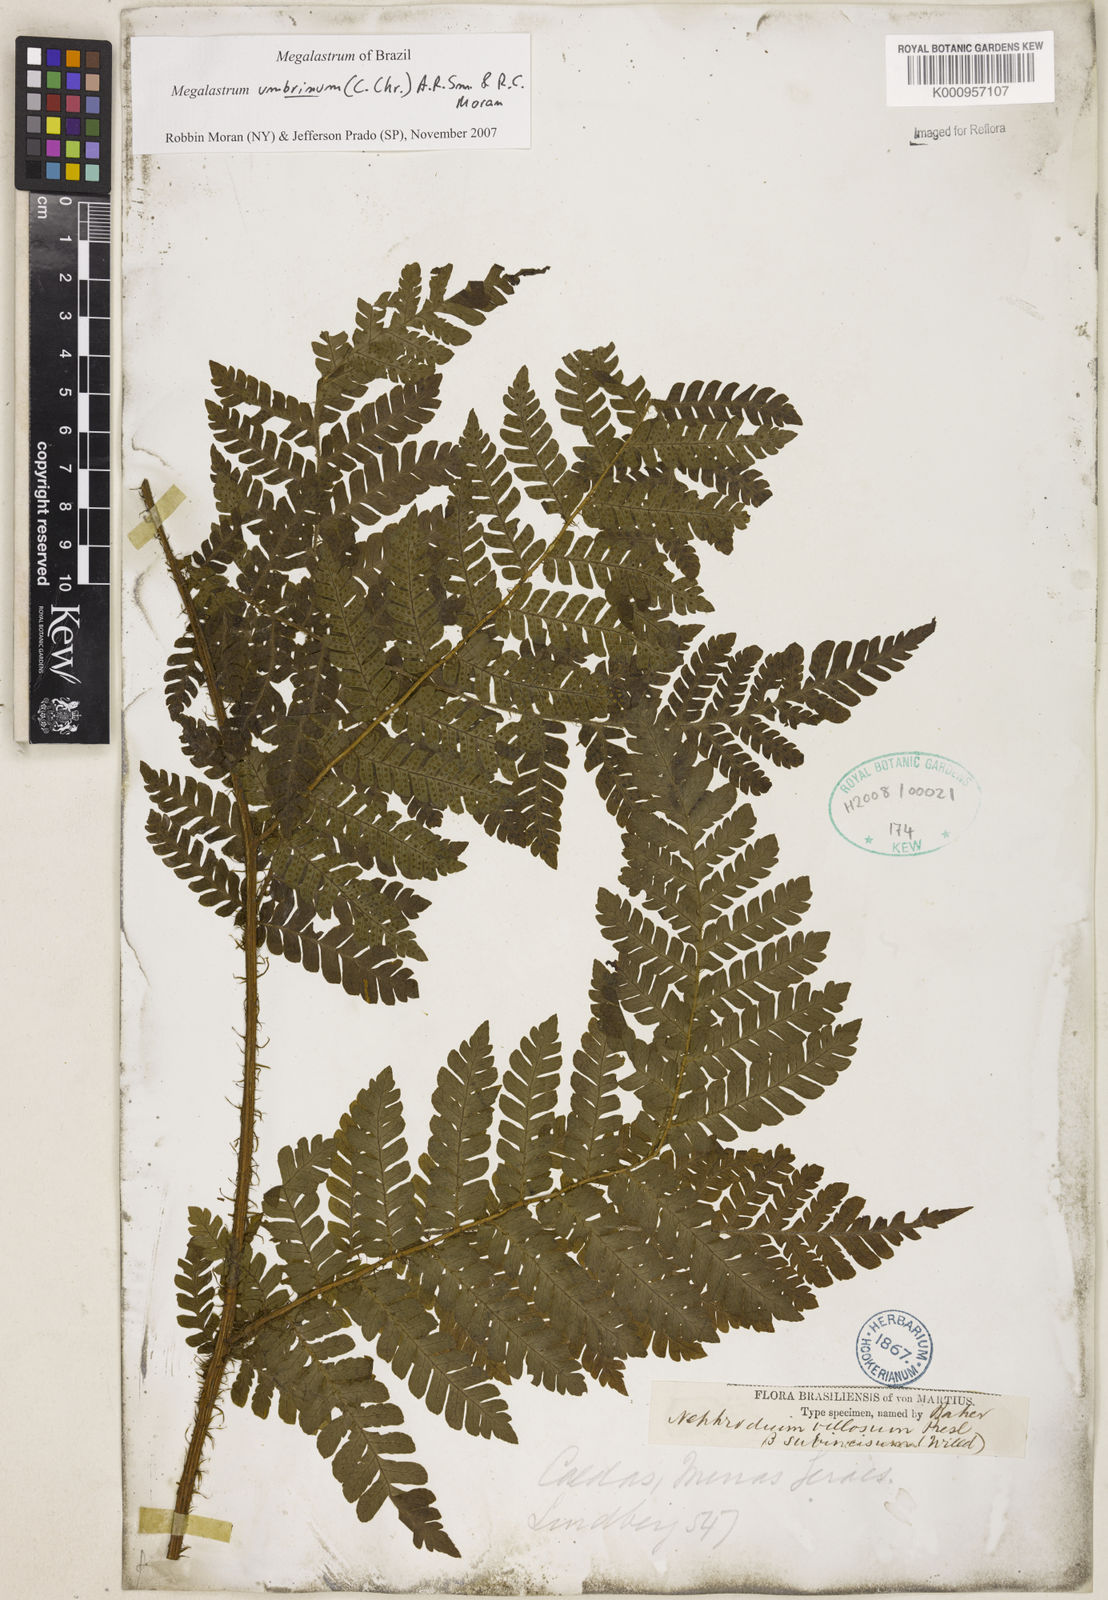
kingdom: Plantae
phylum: Tracheophyta
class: Polypodiopsida
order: Polypodiales
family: Dryopteridaceae
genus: Megalastrum
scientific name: Megalastrum umbrinum
